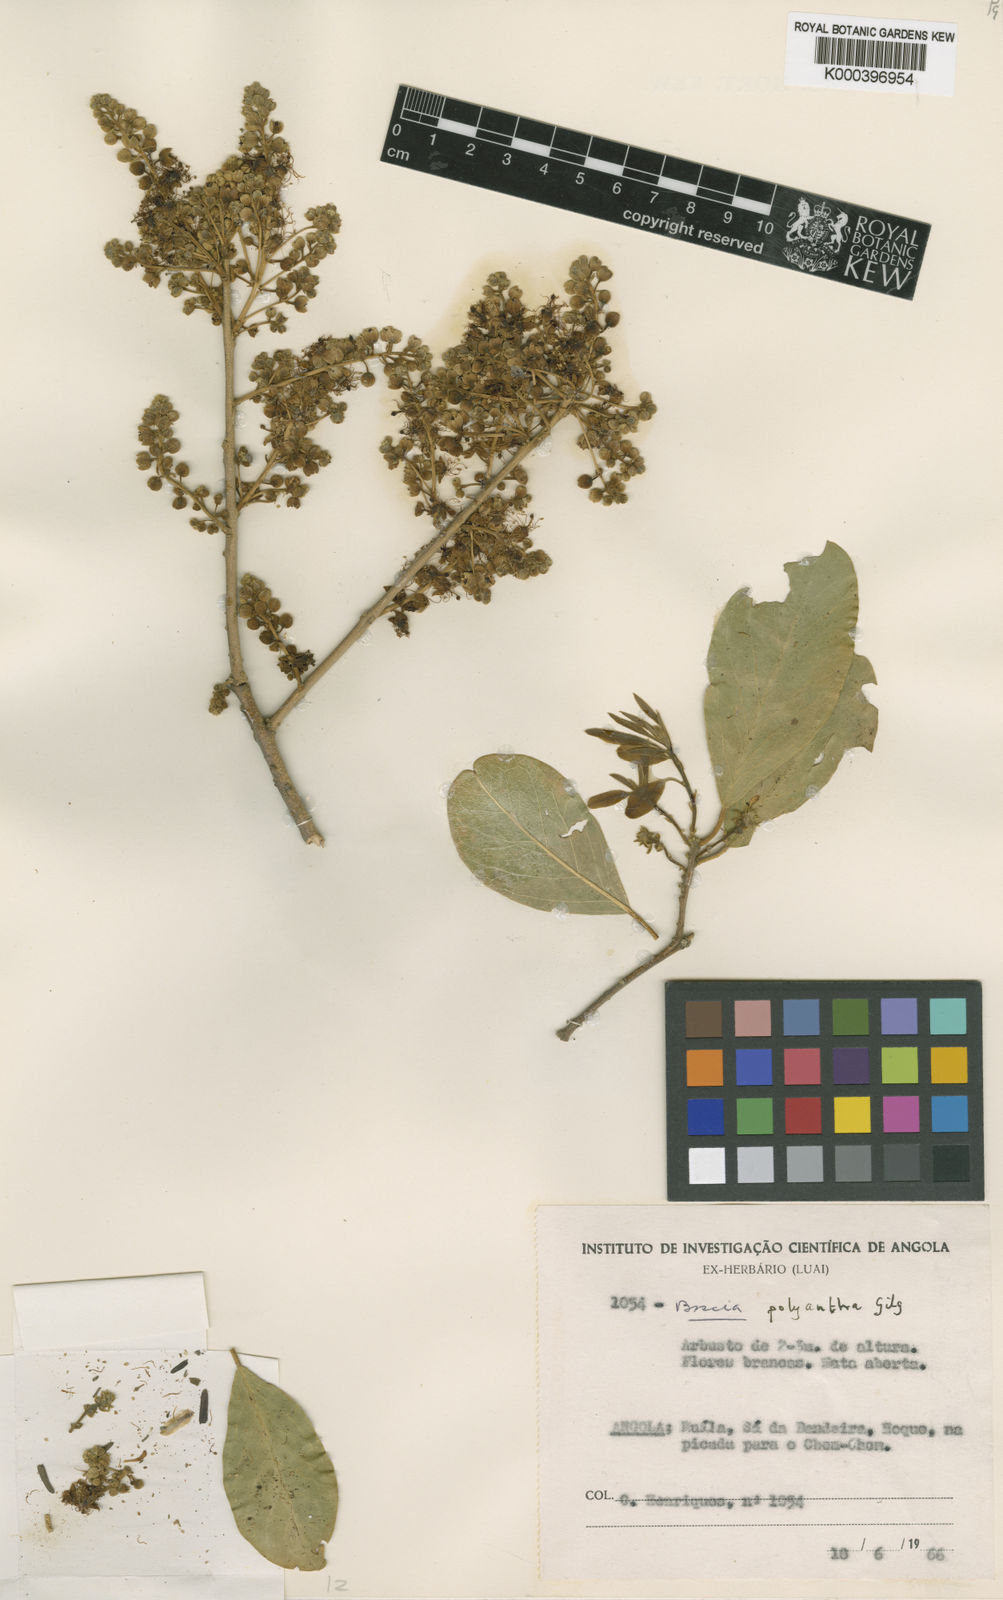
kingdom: Plantae
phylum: Tracheophyta
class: Magnoliopsida
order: Brassicales
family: Capparaceae
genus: Boscia
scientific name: Boscia polyantha
